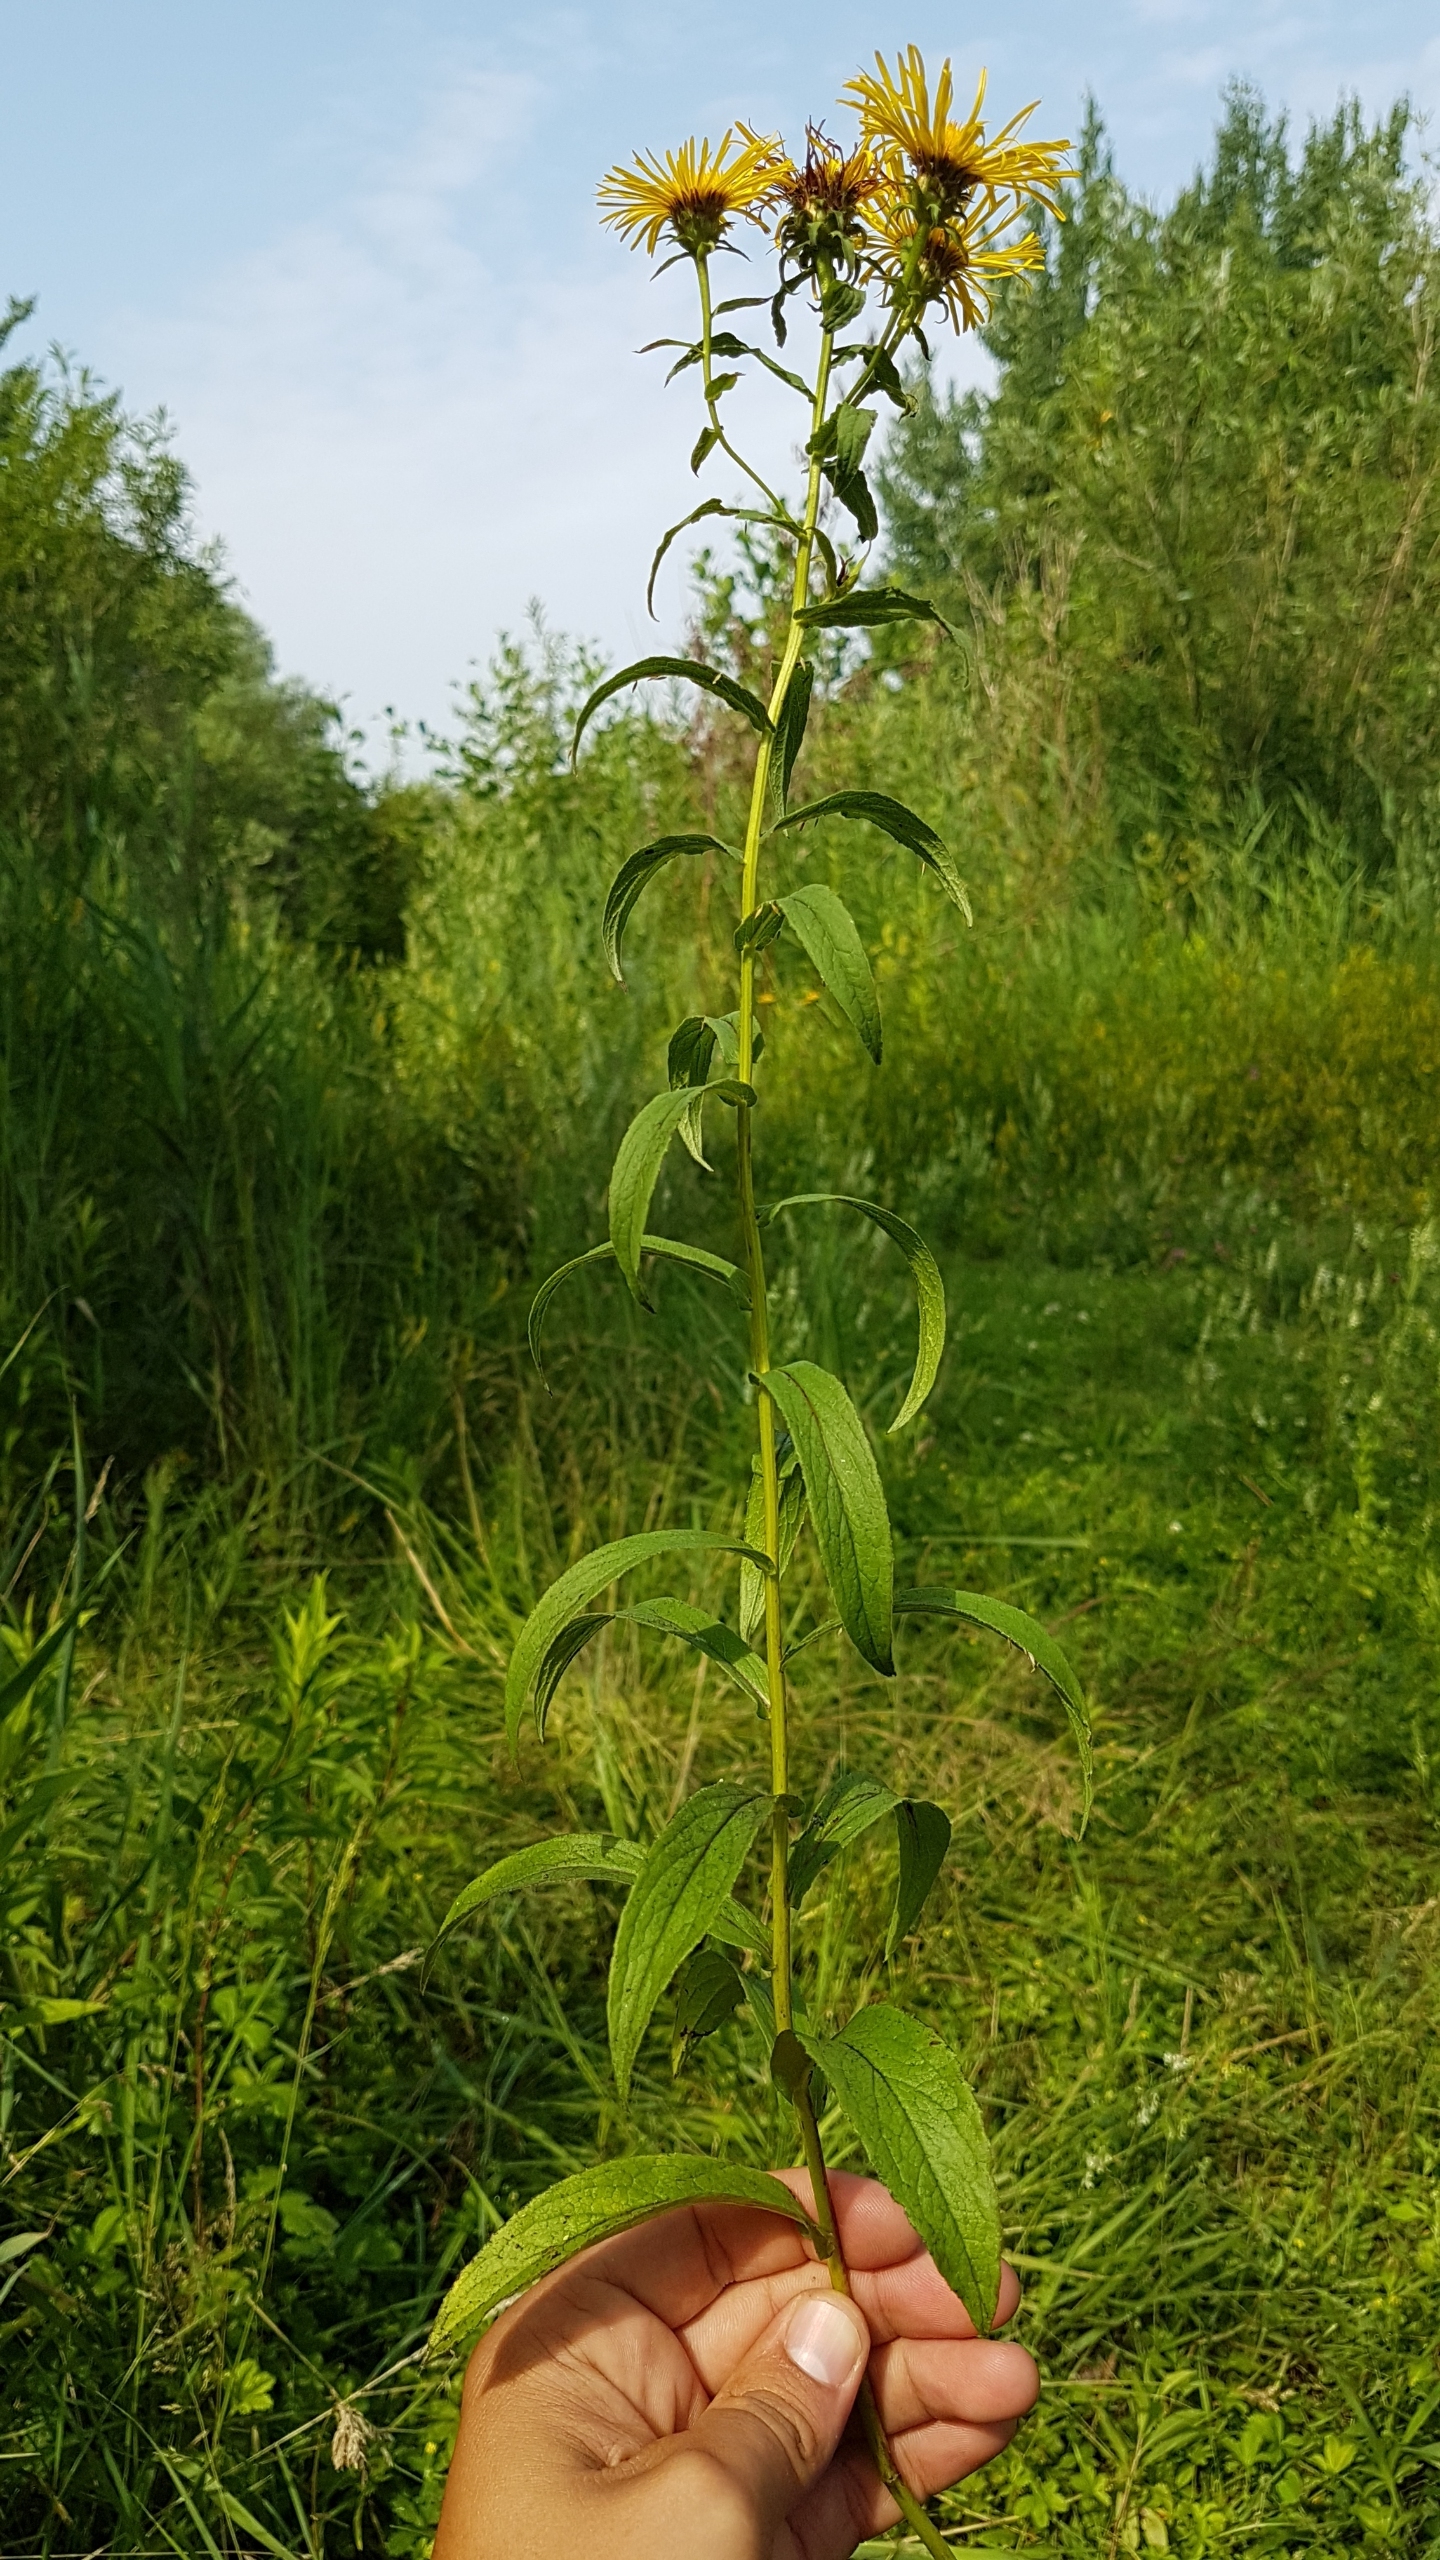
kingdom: Plantae
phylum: Tracheophyta
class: Magnoliopsida
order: Asterales
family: Asteraceae
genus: Pentanema
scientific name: Pentanema salicinum
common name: Pile-alant
